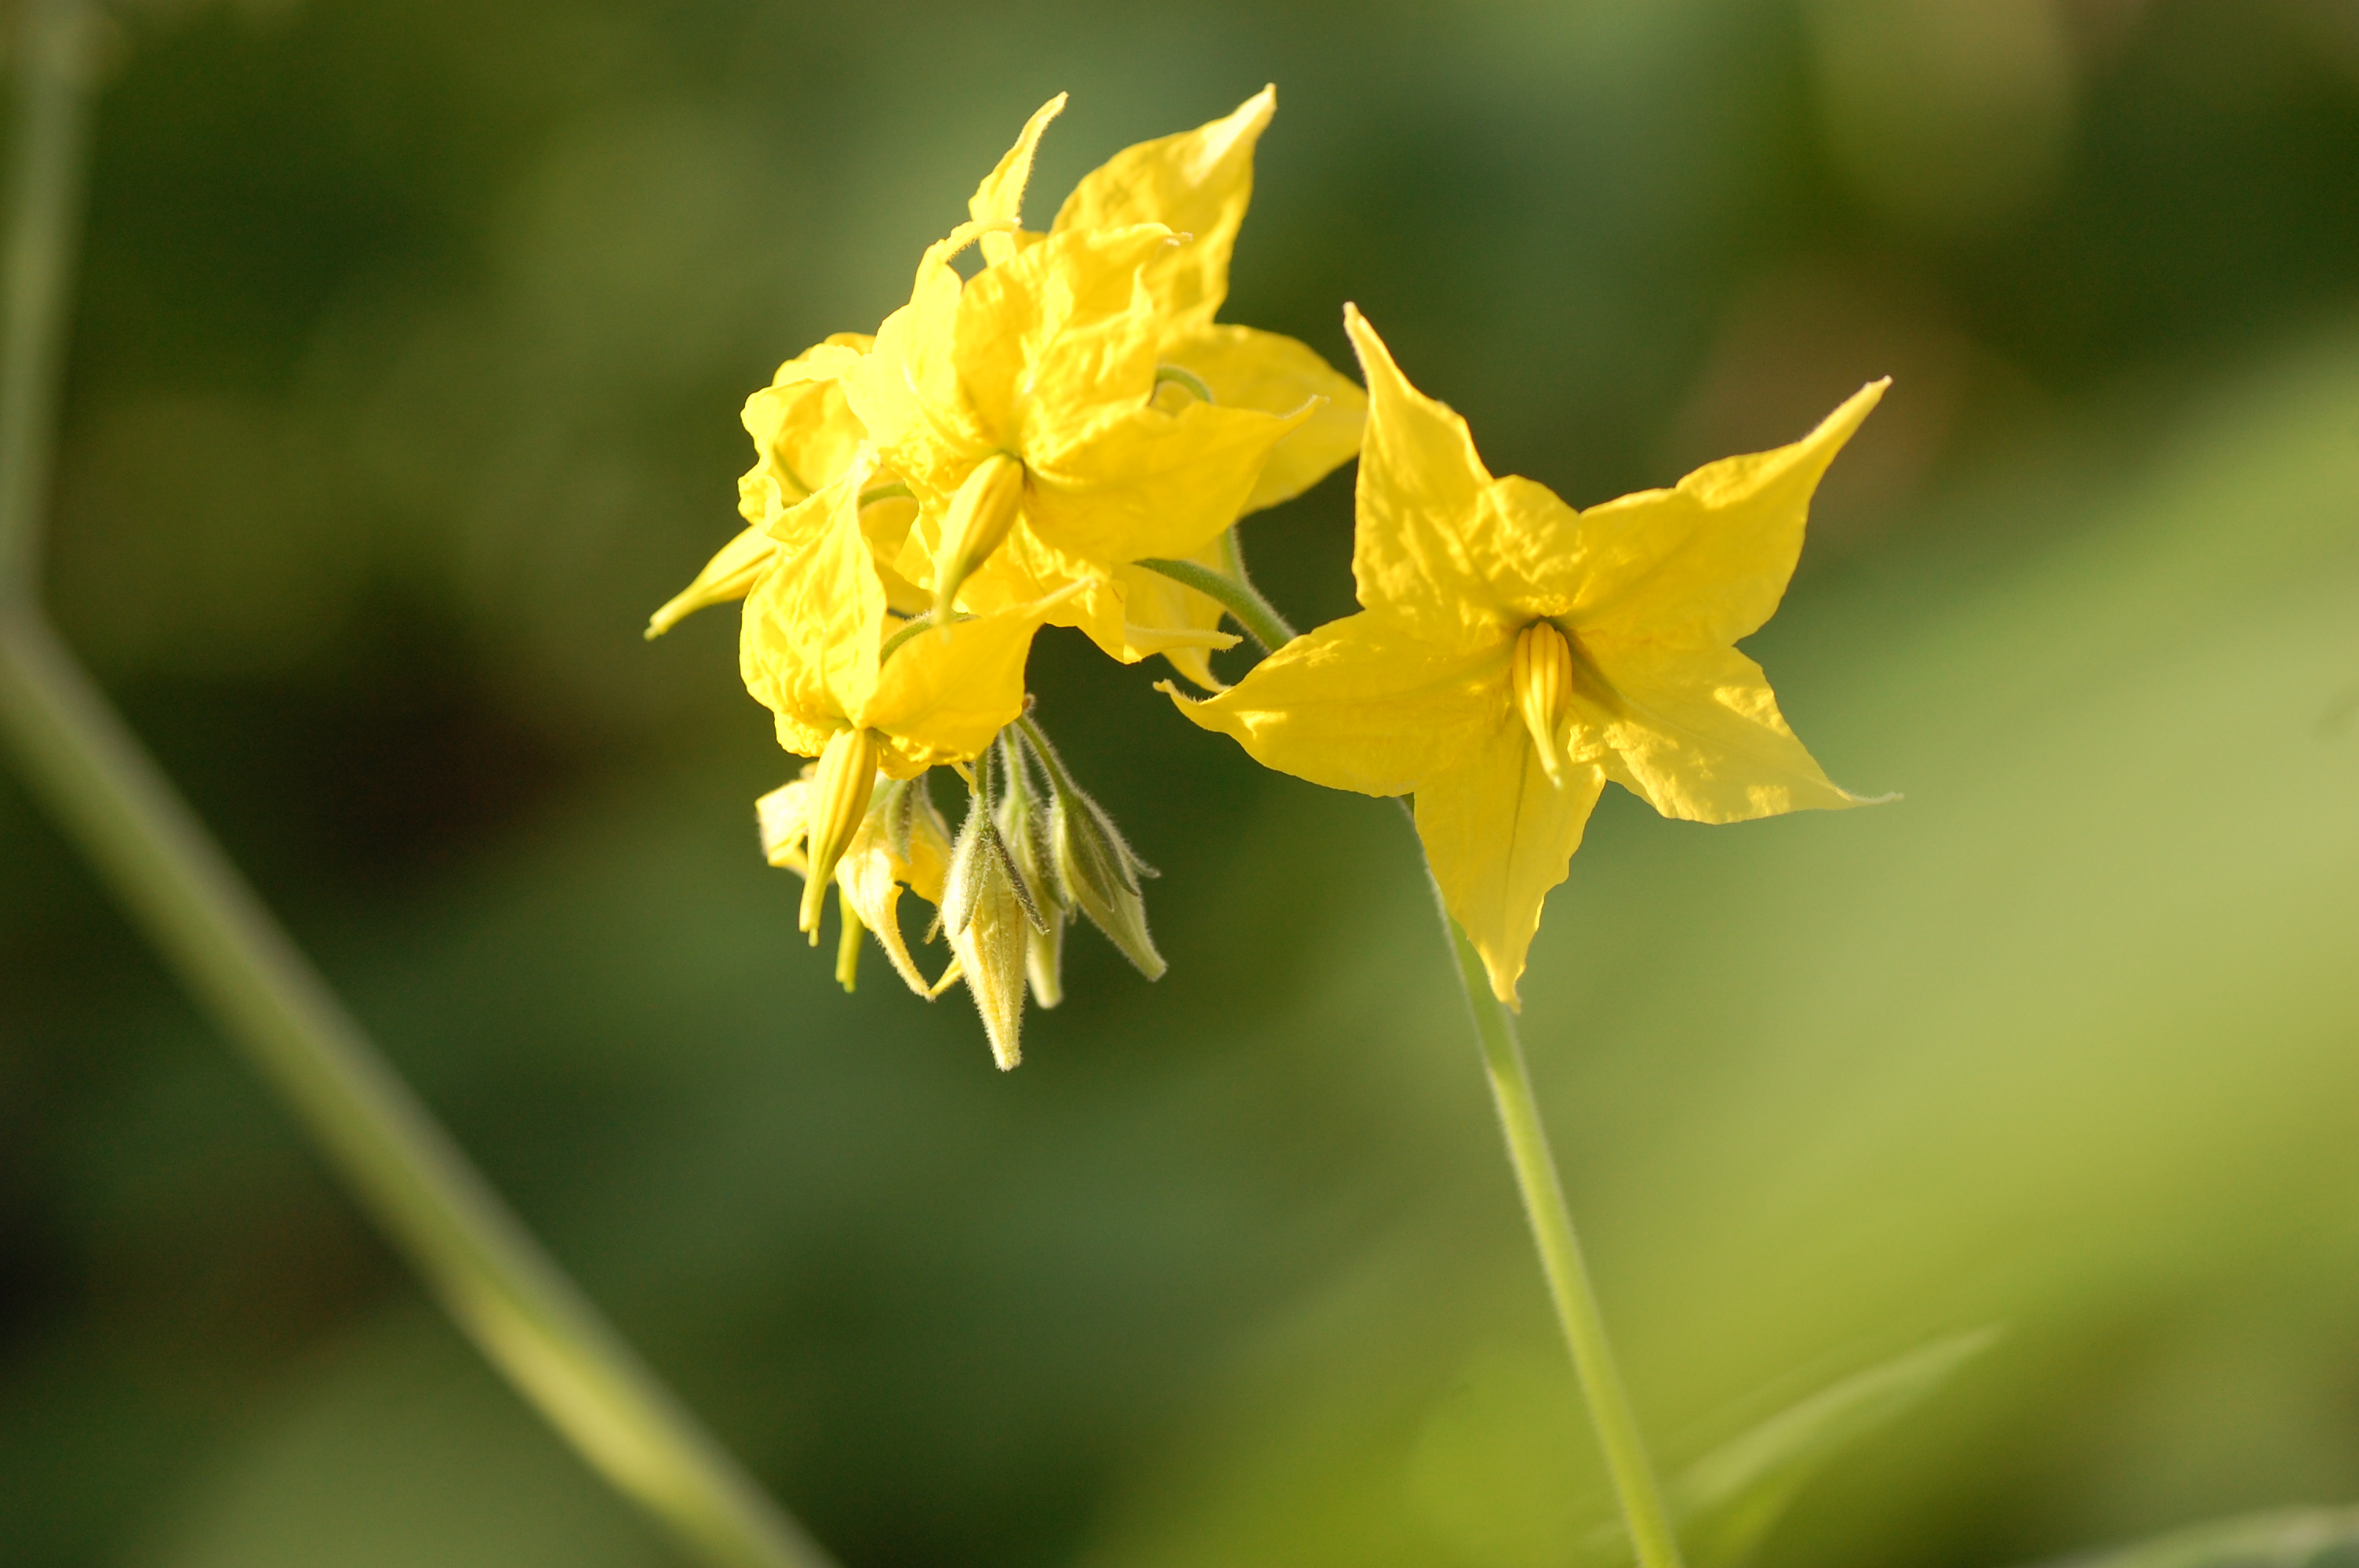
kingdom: Plantae
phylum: Tracheophyta
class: Magnoliopsida
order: Solanales
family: Solanaceae
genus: Solanum
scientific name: Solanum peruvianum
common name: Peruvian nightshade
